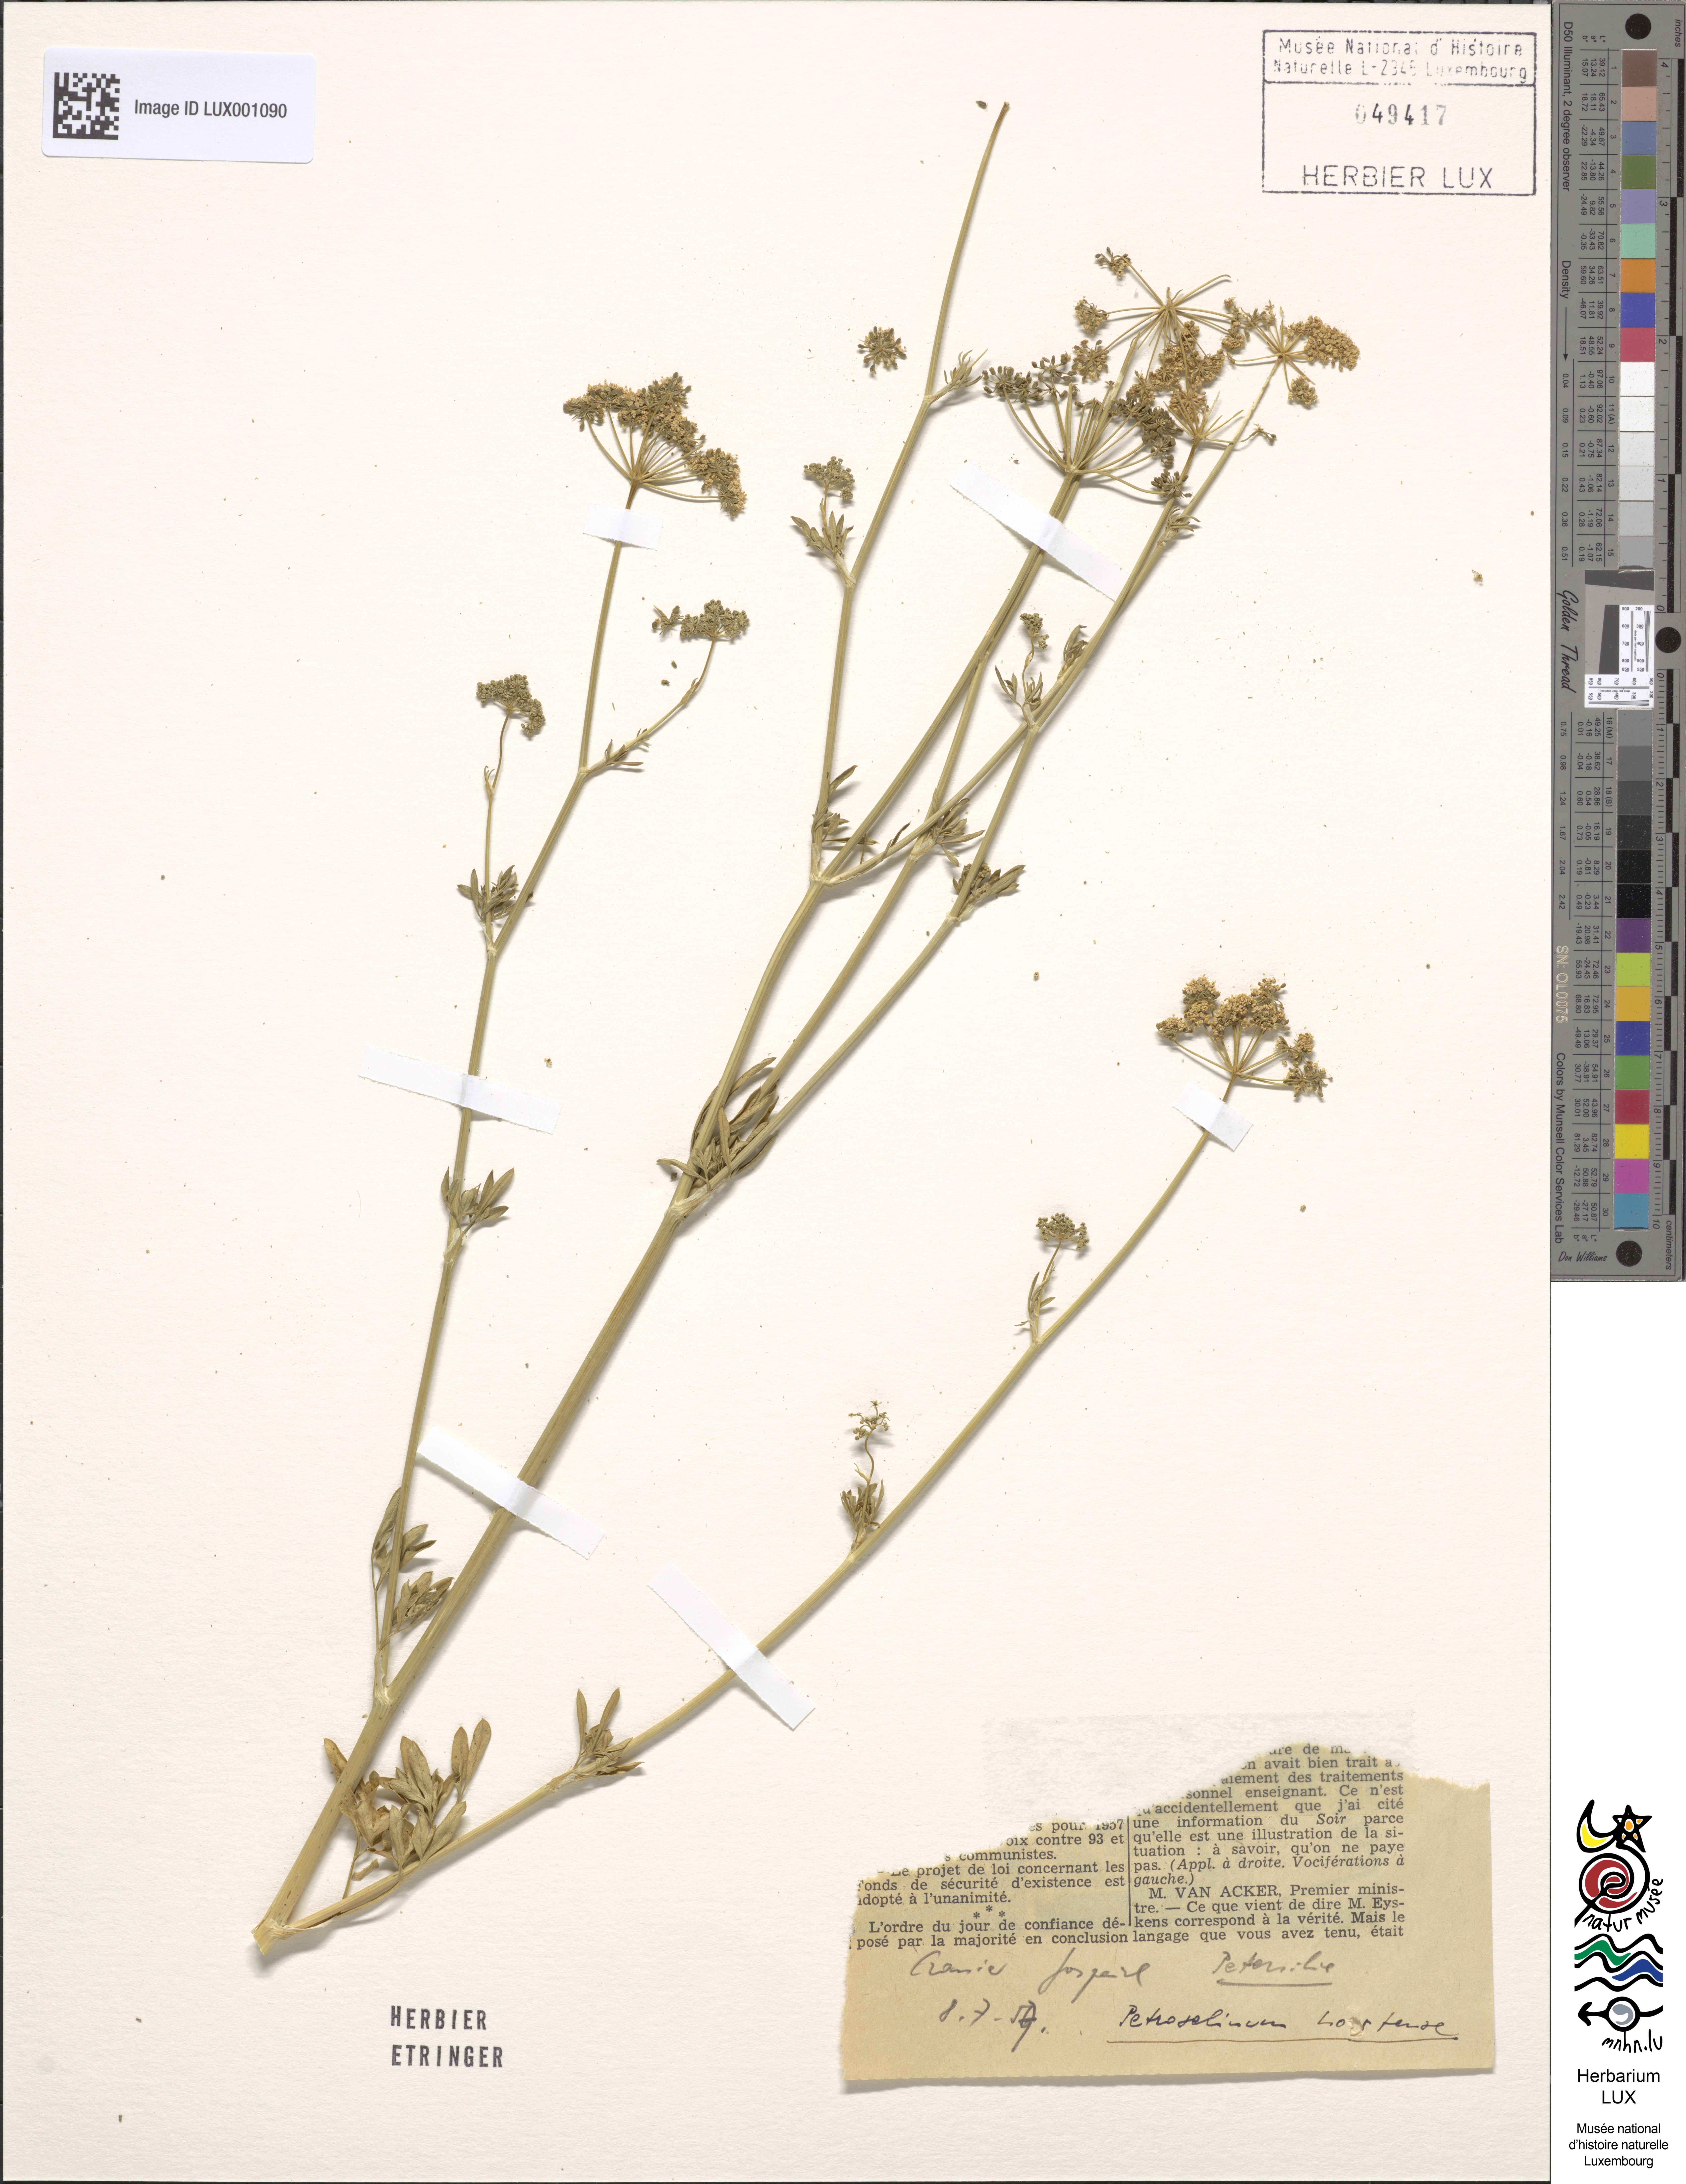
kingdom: Plantae
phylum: Tracheophyta
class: Magnoliopsida
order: Apiales
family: Apiaceae
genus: Petroselinum
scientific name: Petroselinum crispum
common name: Parsley
